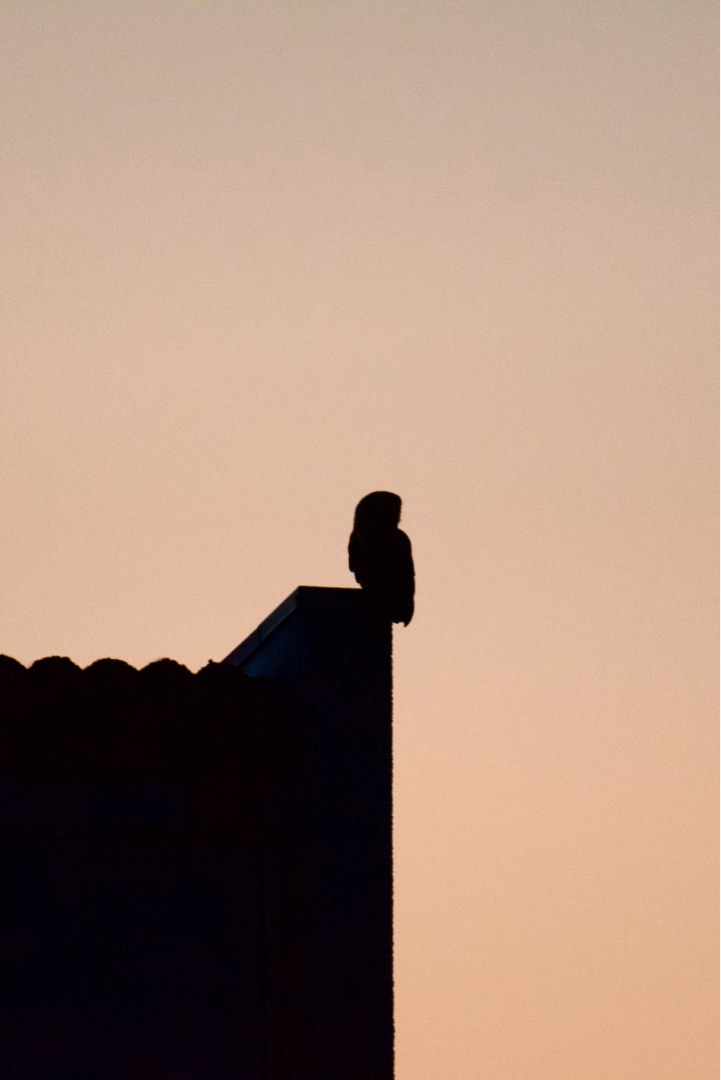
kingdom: Animalia
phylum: Chordata
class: Aves
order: Strigiformes
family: Strigidae
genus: Strix
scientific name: Strix aluco
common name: Natugle
